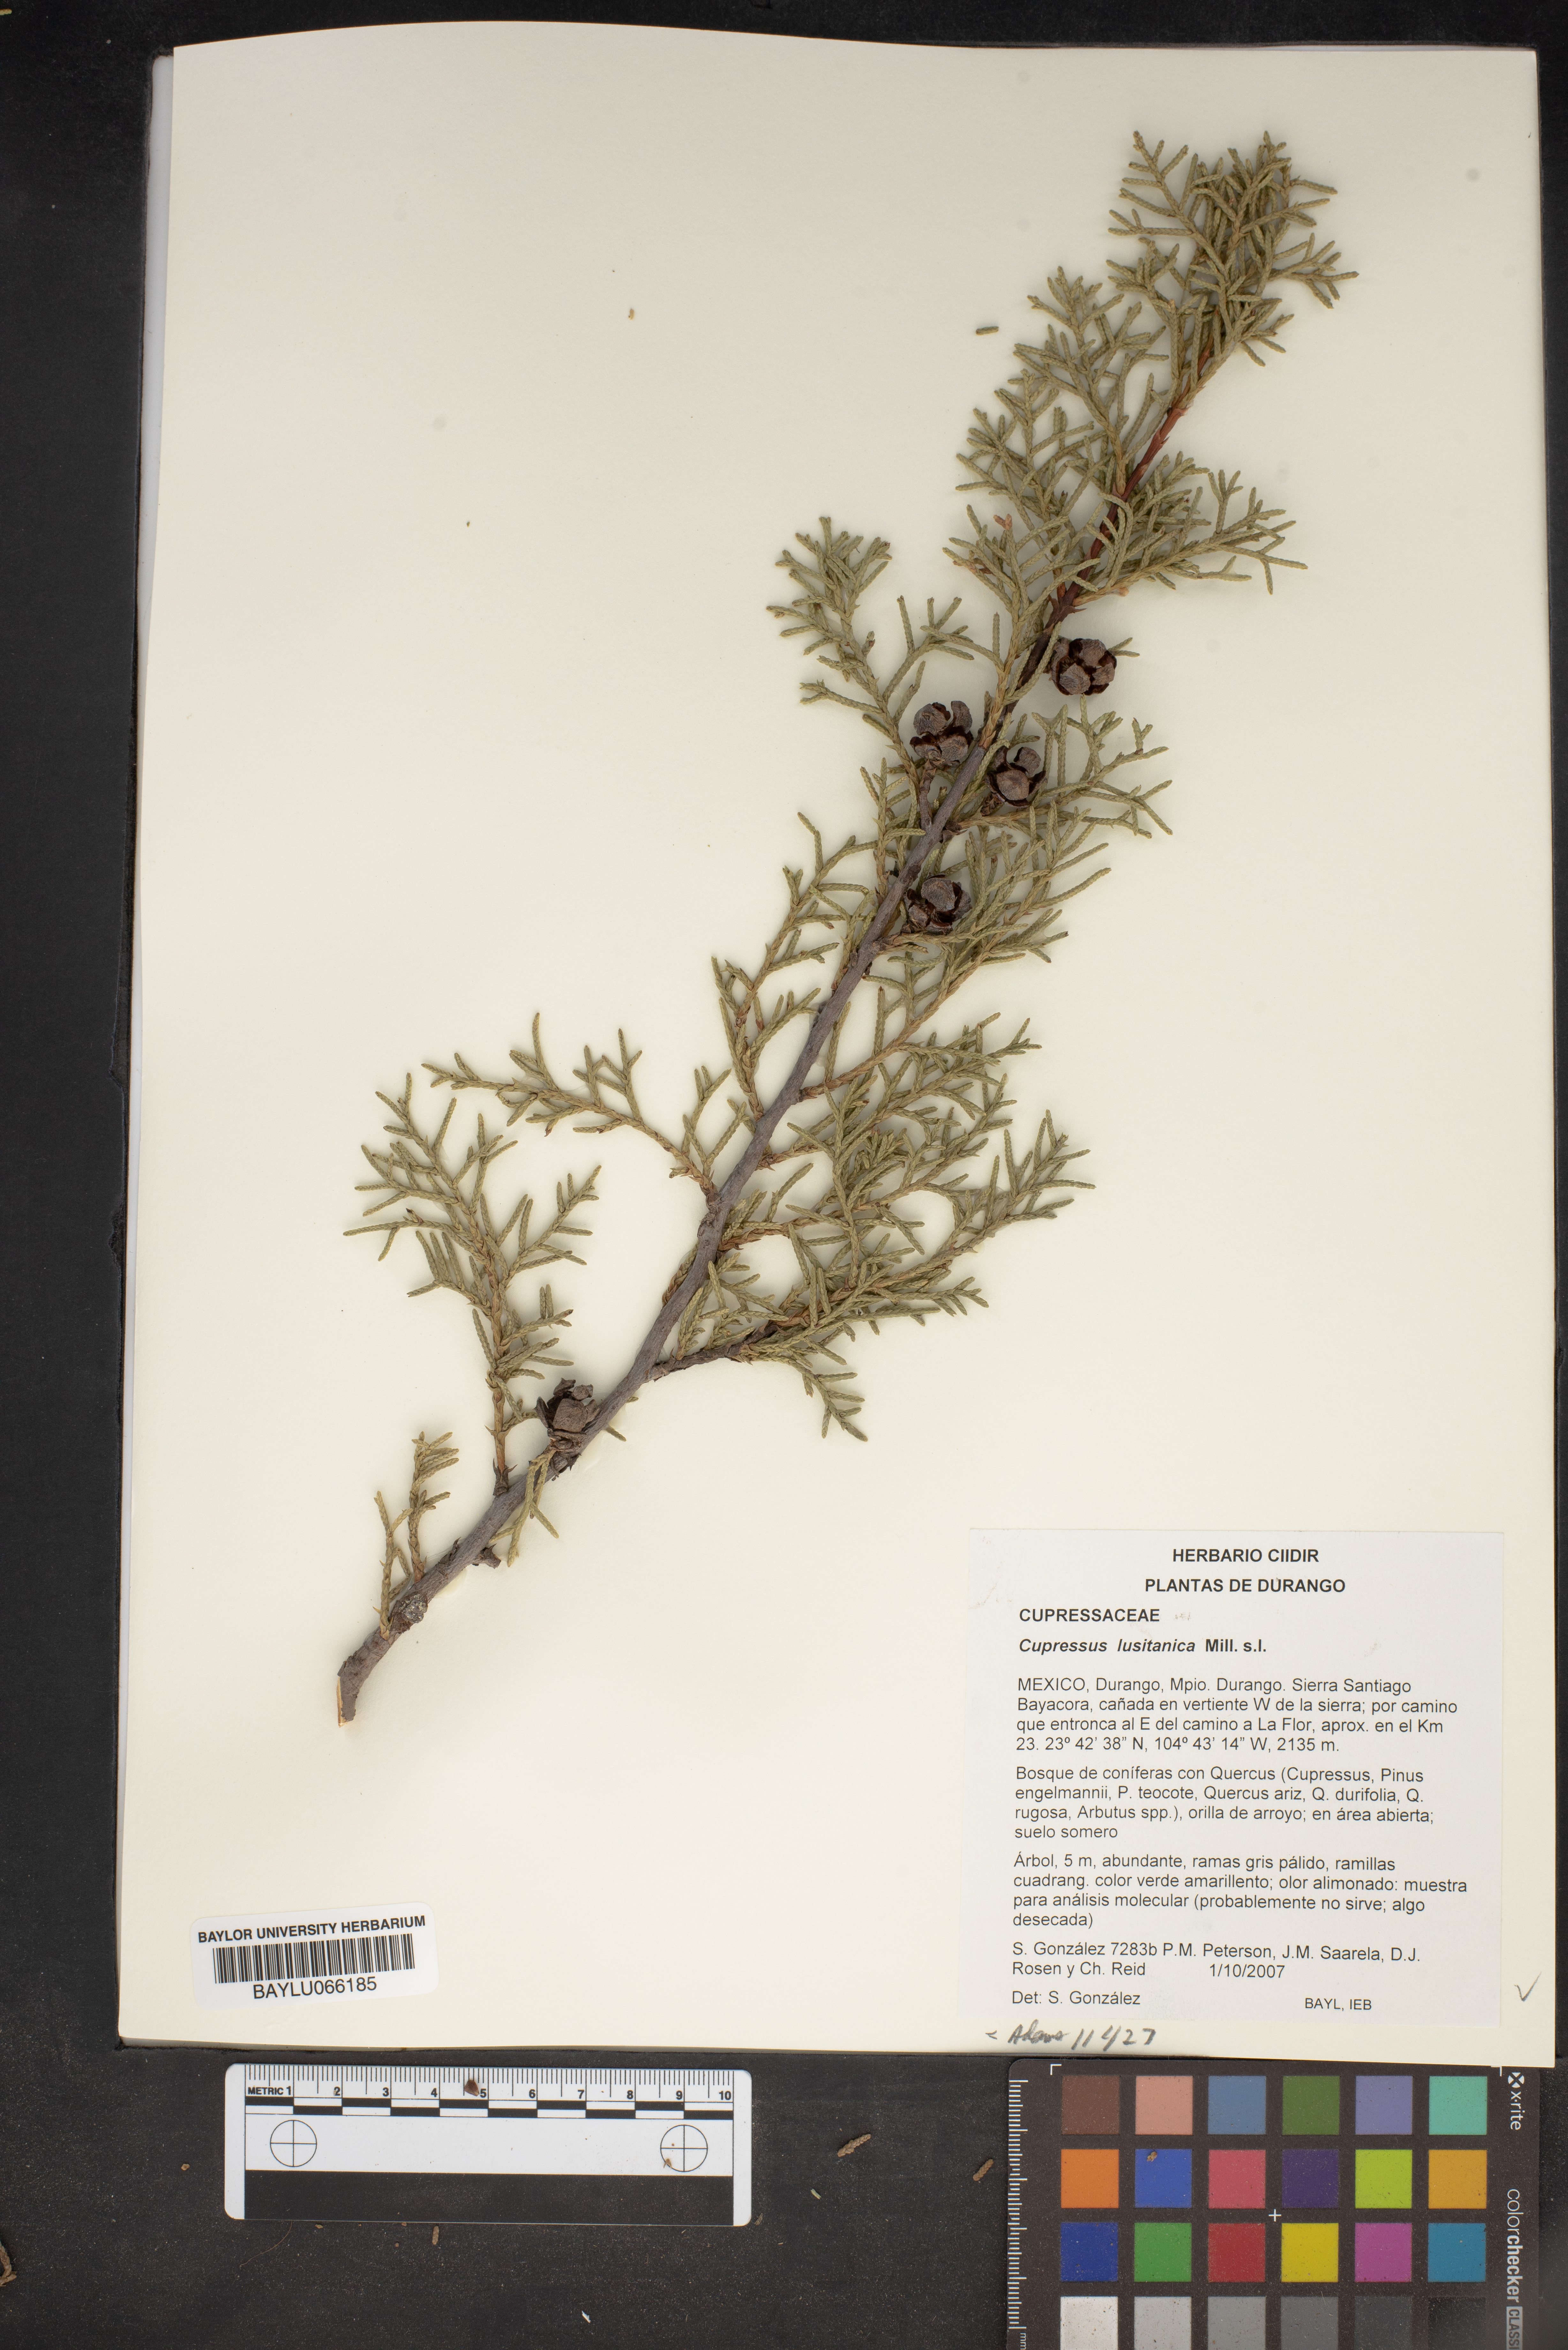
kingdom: Plantae
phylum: Tracheophyta
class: Pinopsida
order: Pinales
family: Cupressaceae
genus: Cupressus
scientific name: Cupressus lusitanica
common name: Mexican cypress
